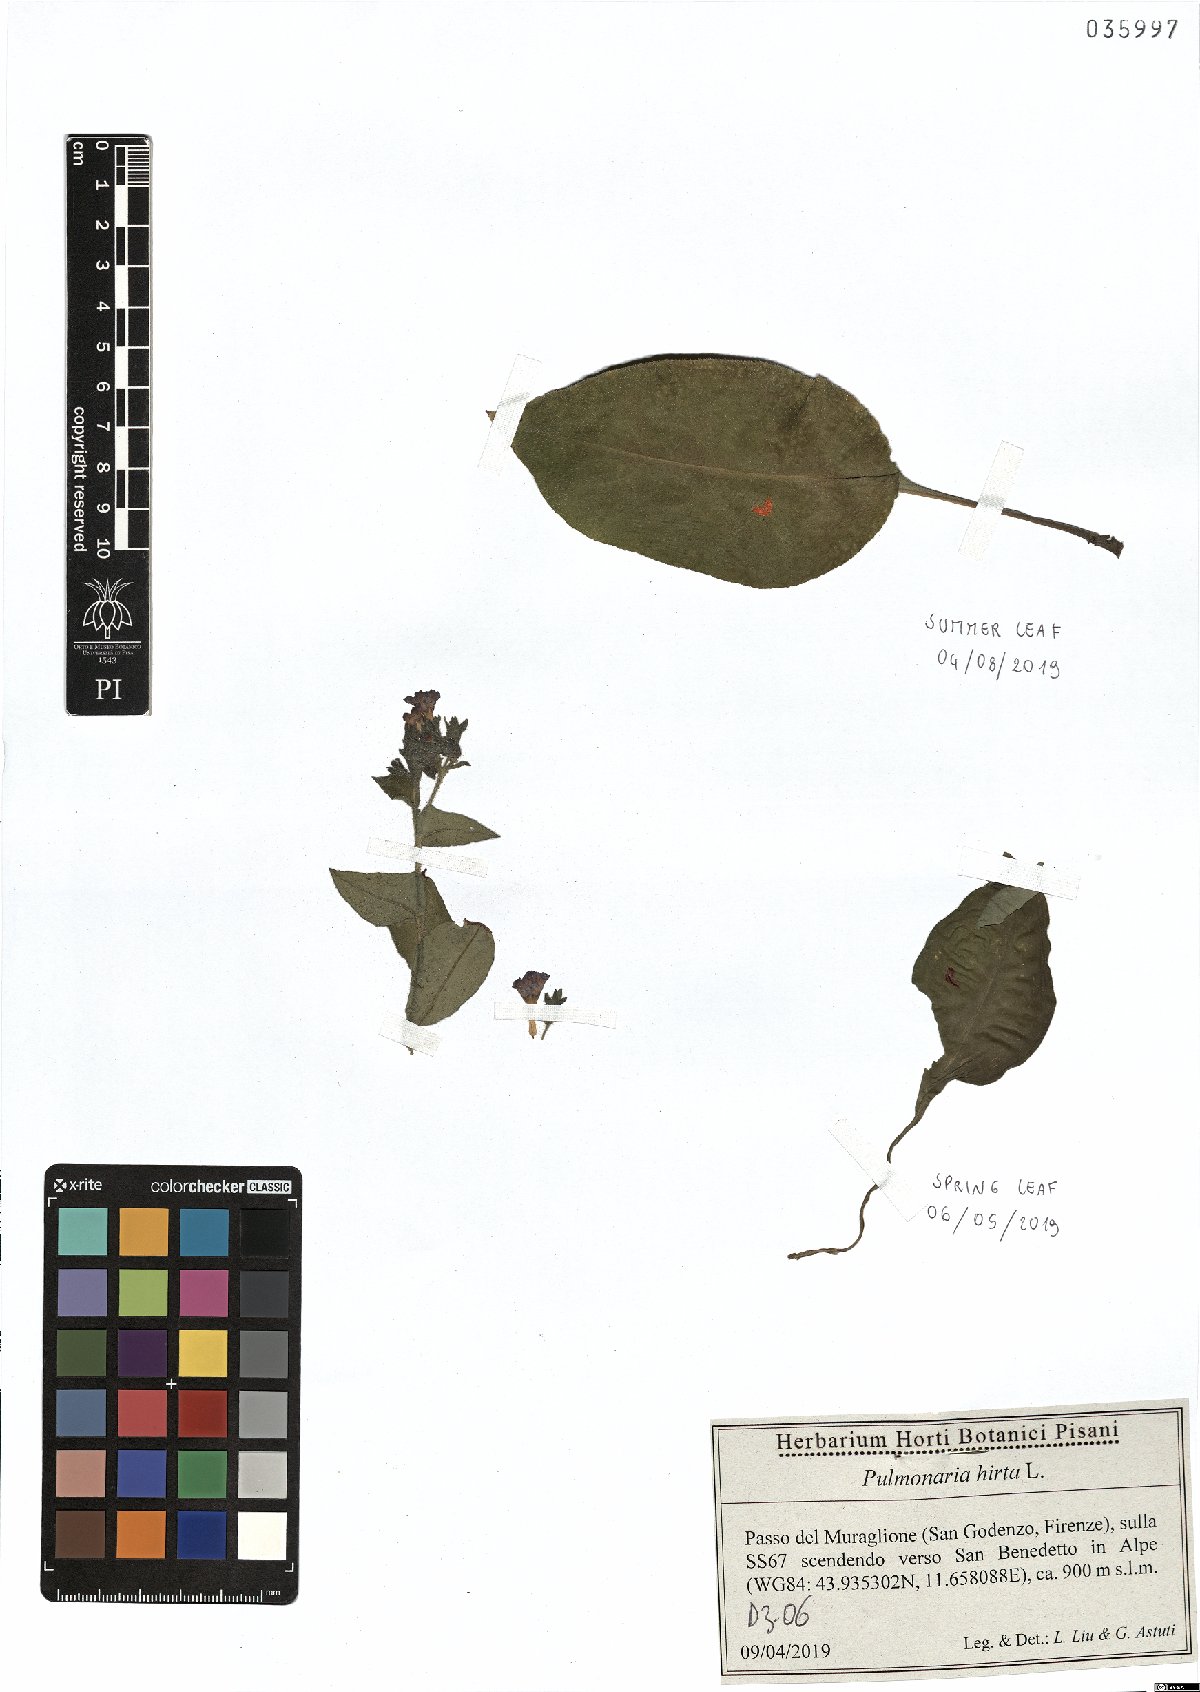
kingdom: Plantae
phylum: Tracheophyta
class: Magnoliopsida
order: Boraginales
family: Boraginaceae
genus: Pulmonaria
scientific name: Pulmonaria hirta
